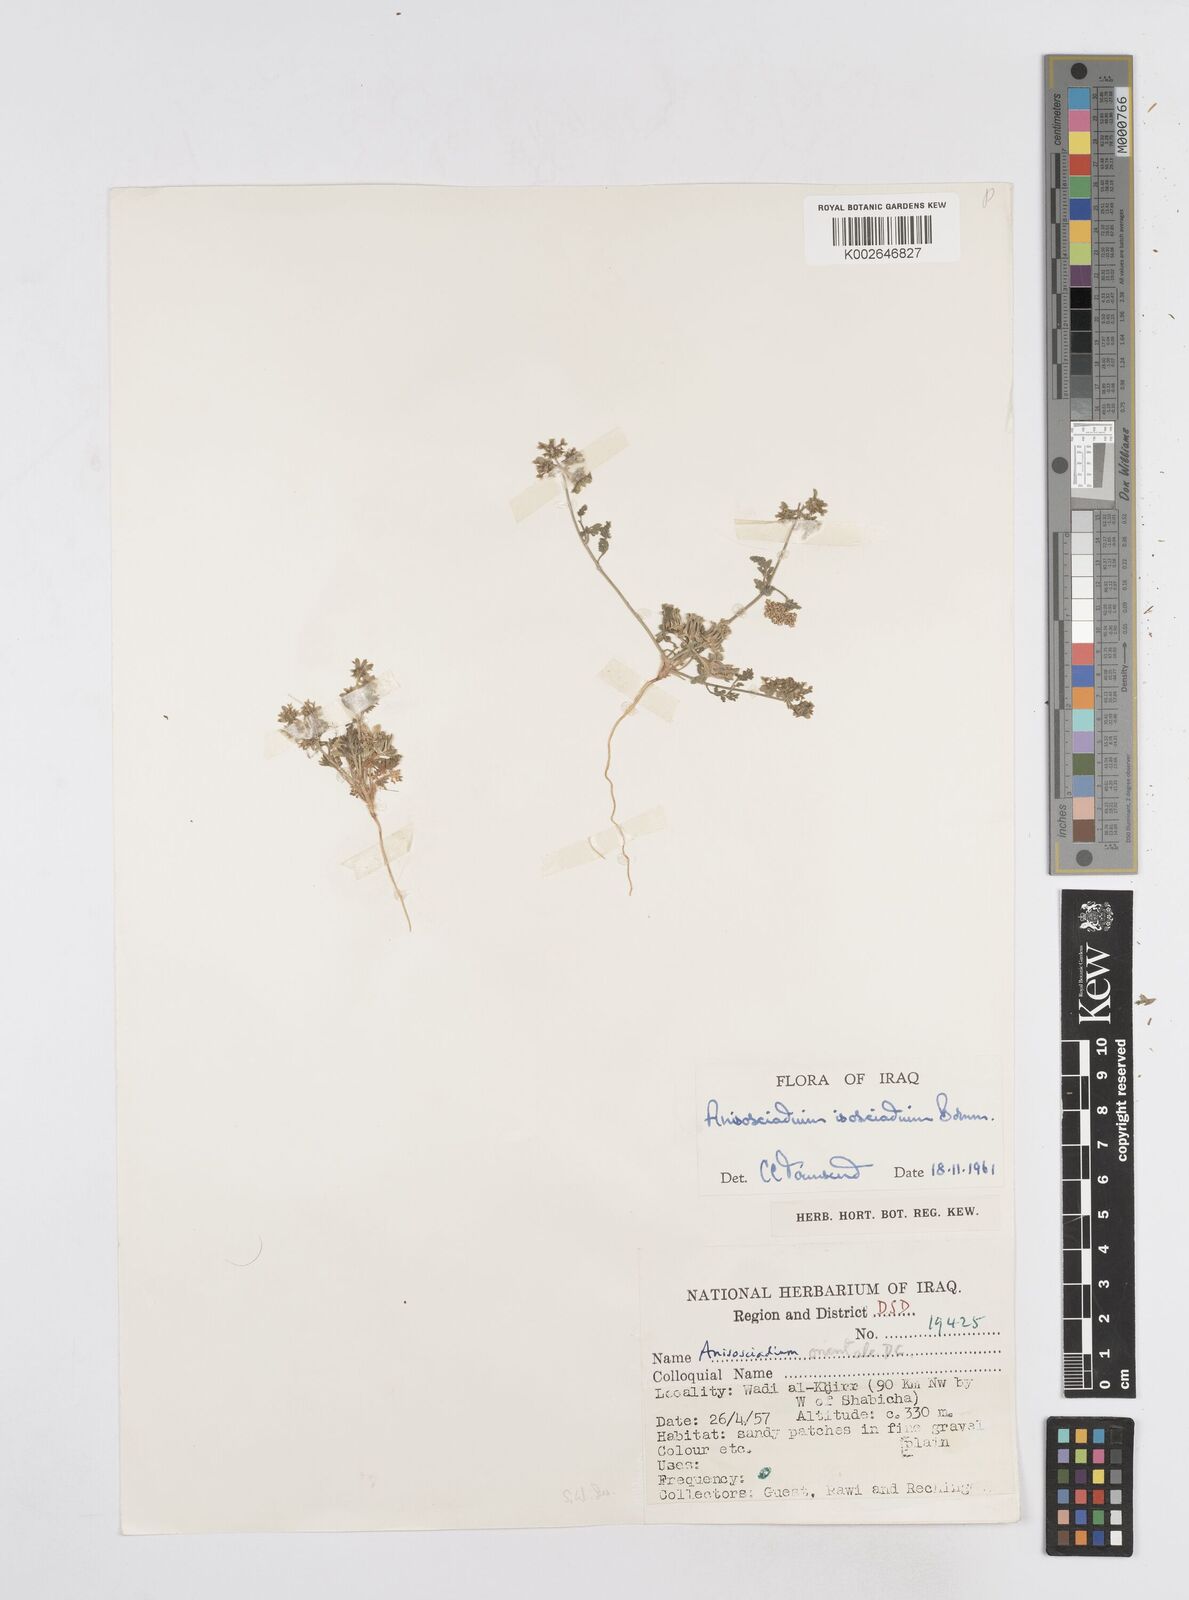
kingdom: Plantae
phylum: Tracheophyta
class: Magnoliopsida
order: Apiales
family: Apiaceae
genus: Anisosciadium
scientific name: Anisosciadium isosciadium
